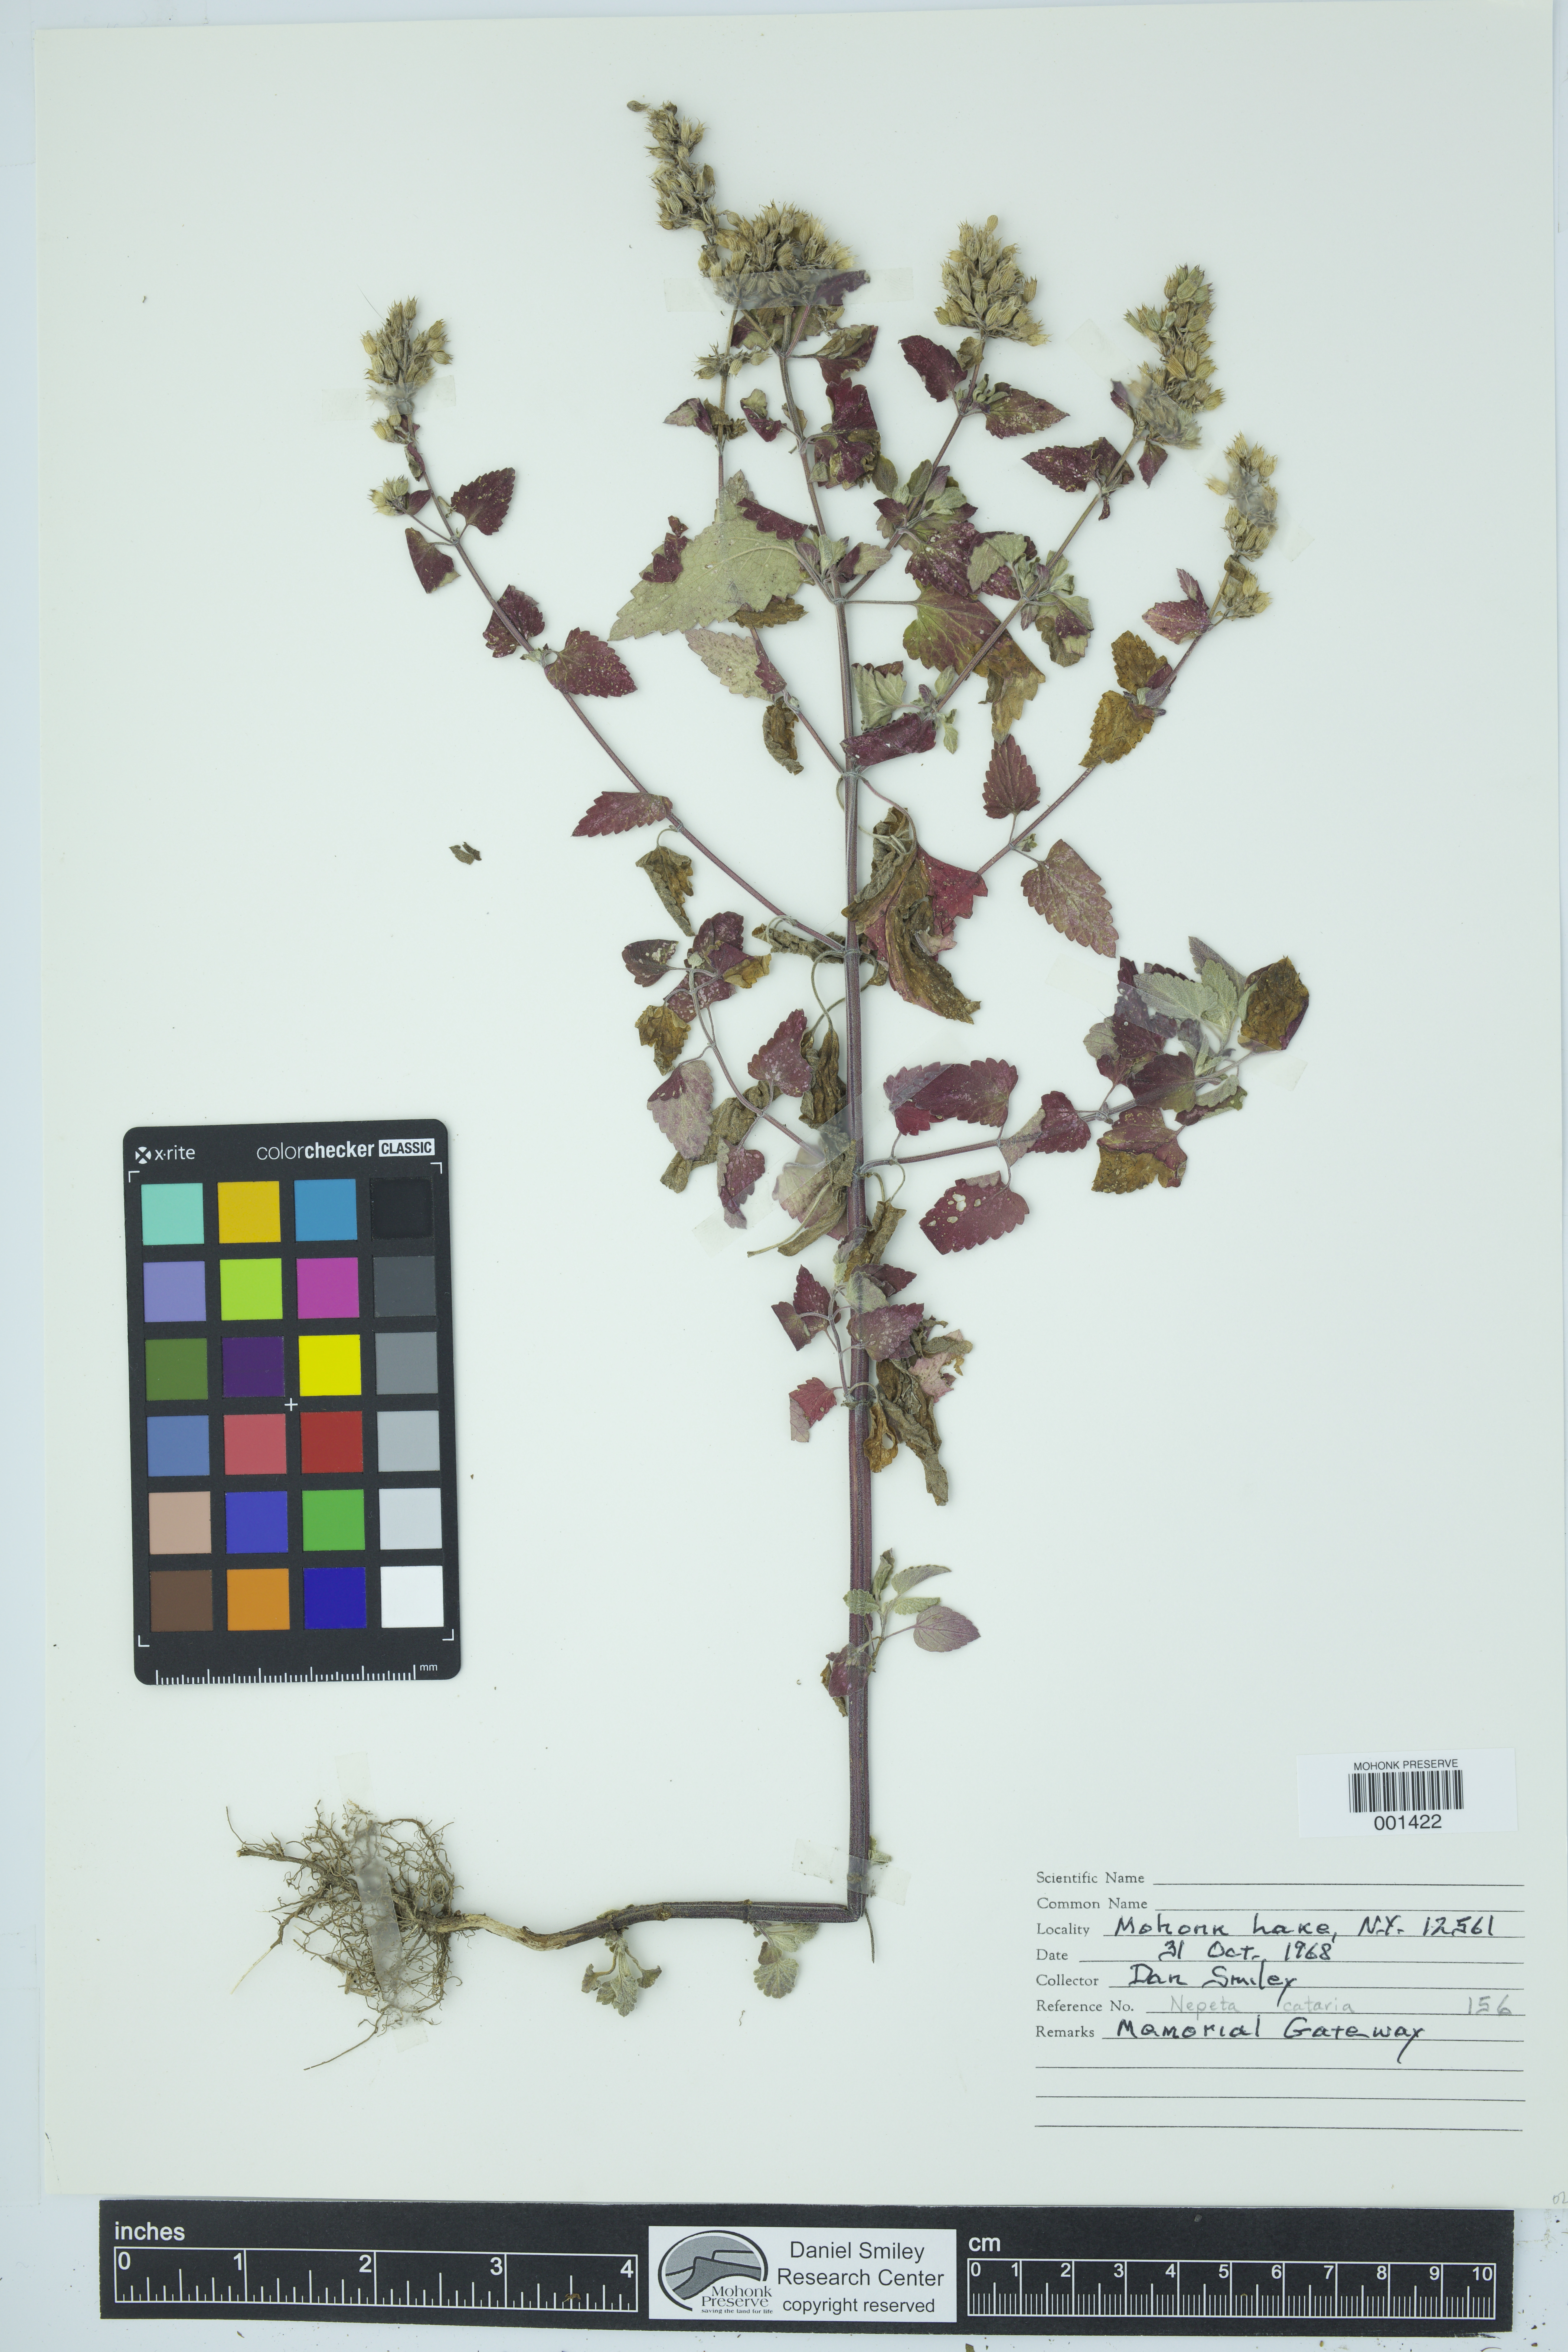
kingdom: Plantae
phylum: Tracheophyta
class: Magnoliopsida
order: Lamiales
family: Lamiaceae
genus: Nepeta
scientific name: Nepeta cataria
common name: Catnip
